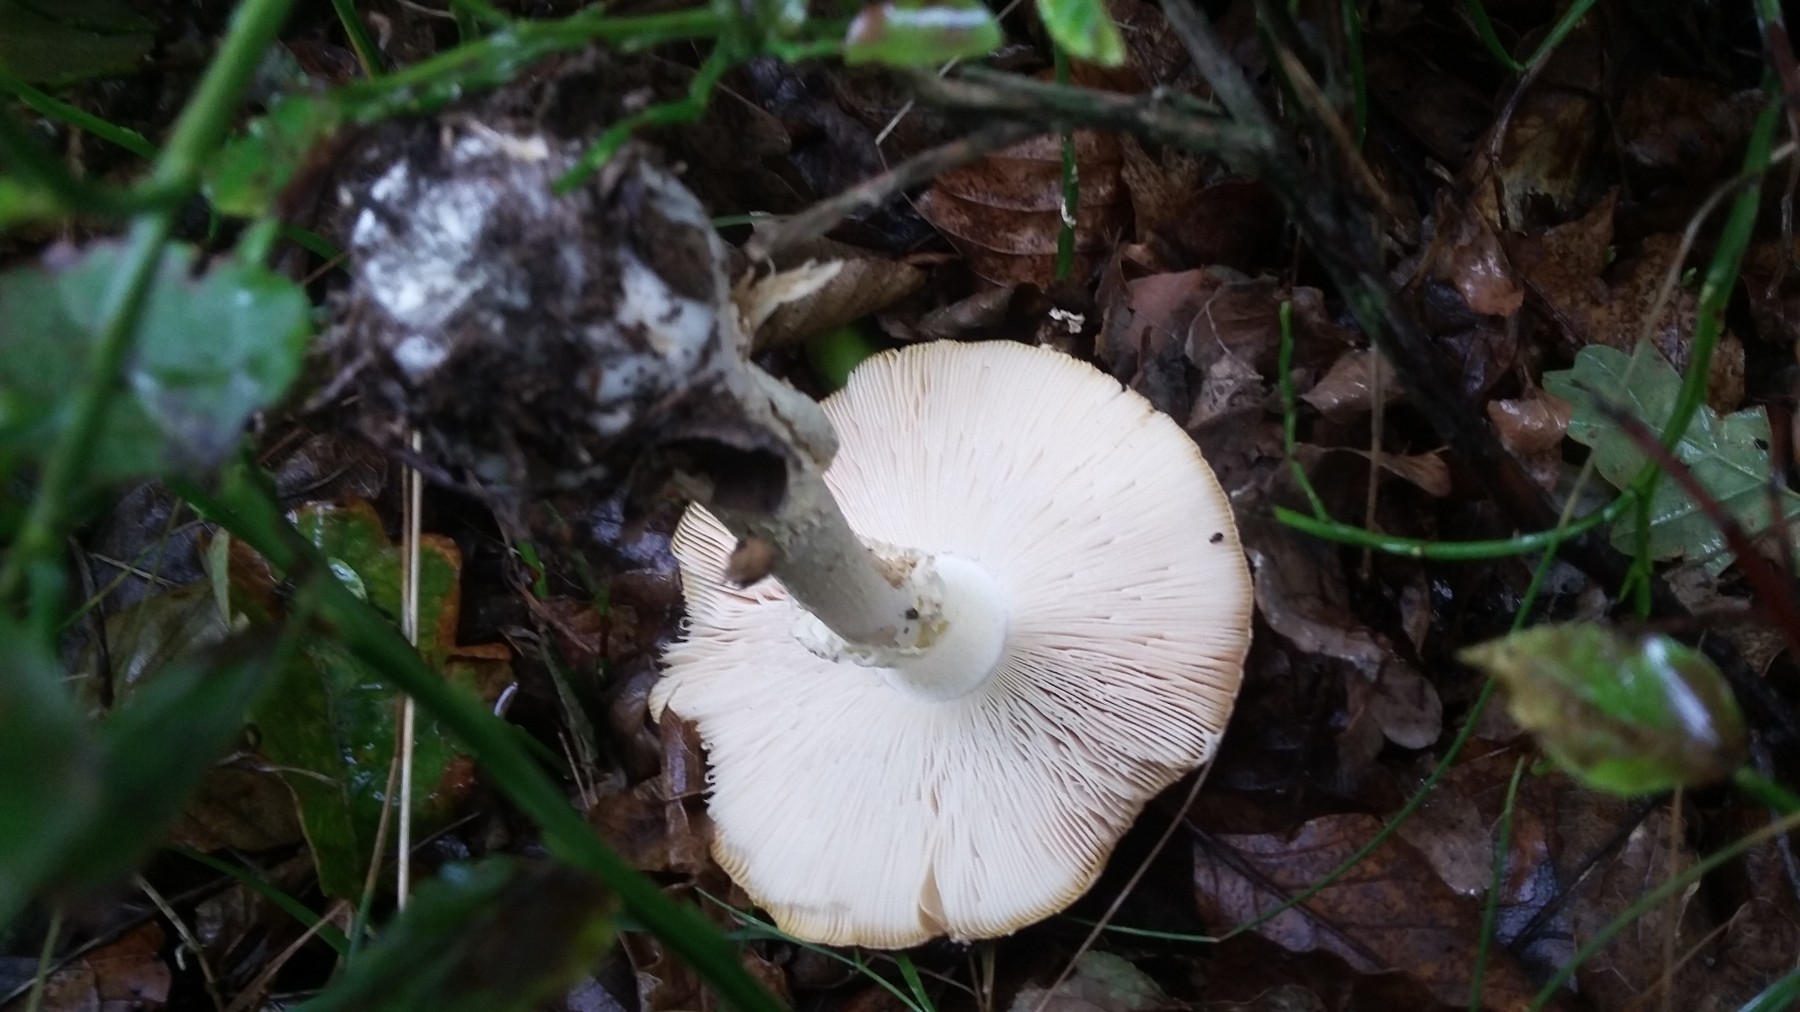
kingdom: Fungi
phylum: Basidiomycota
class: Agaricomycetes
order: Agaricales
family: Amanitaceae
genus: Amanita
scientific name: Amanita regalis
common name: brun fluesvamp
